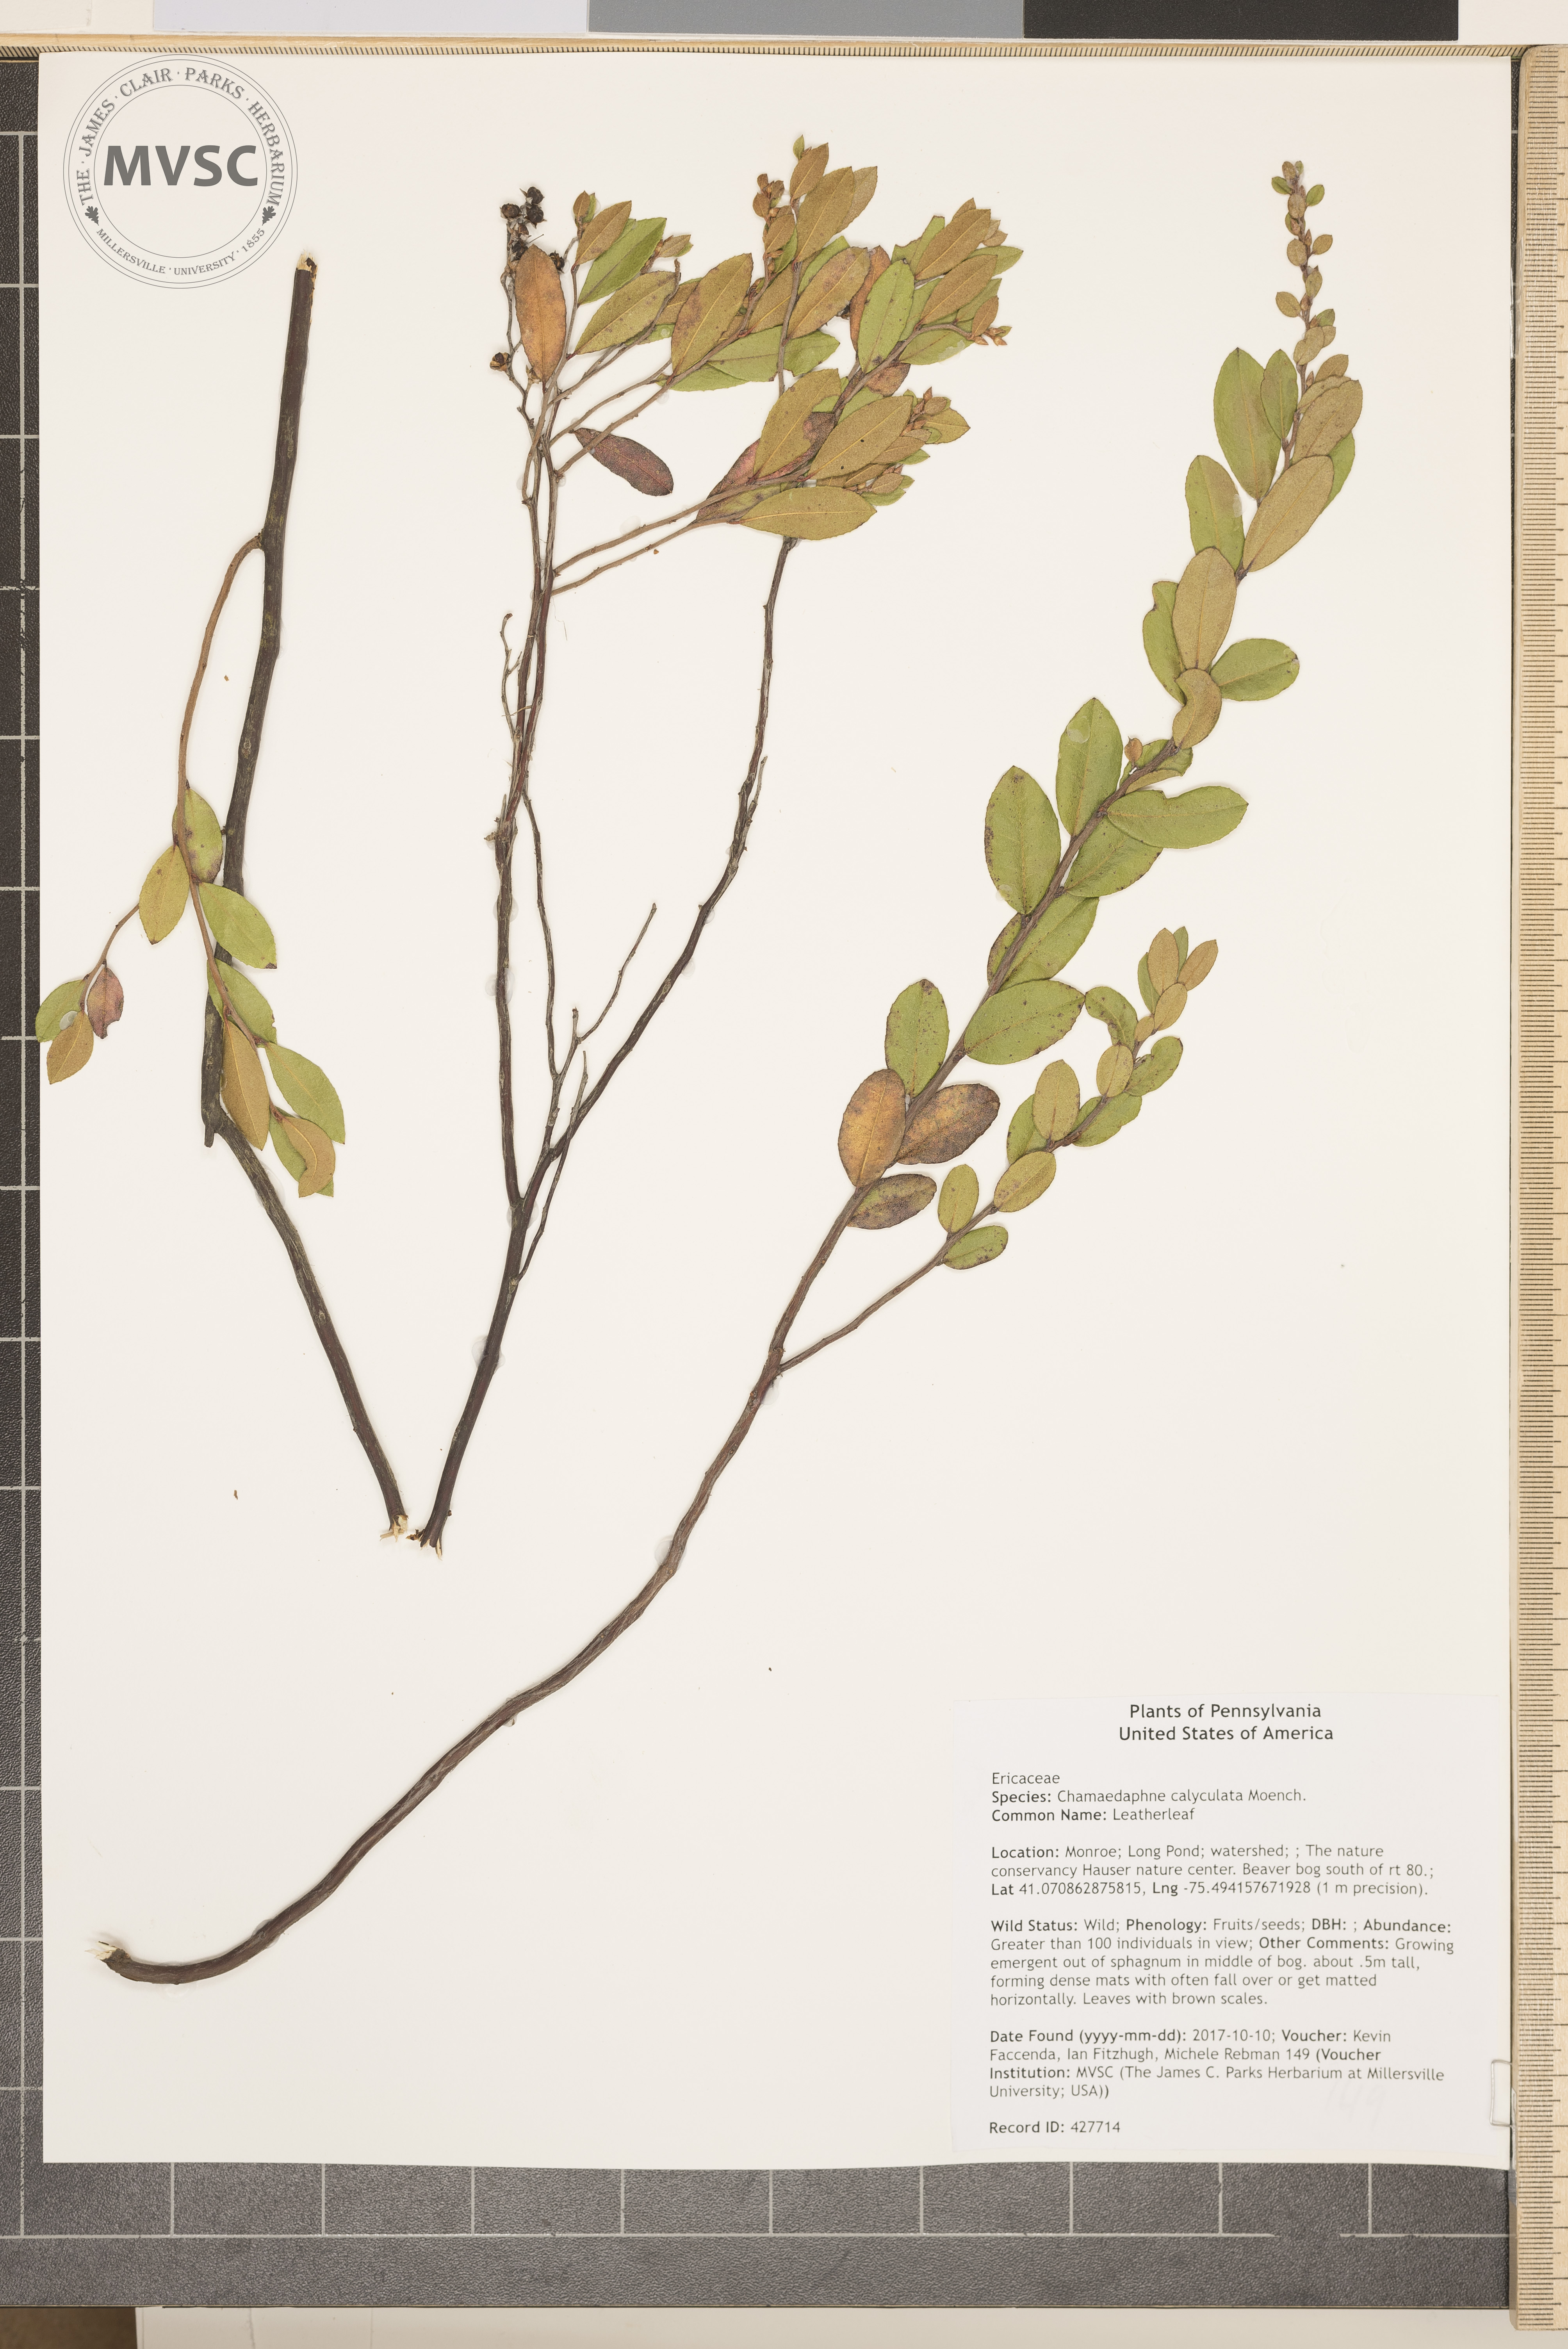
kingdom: Plantae
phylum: Tracheophyta
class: Magnoliopsida
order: Ericales
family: Ericaceae
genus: Chamaedaphne
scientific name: Chamaedaphne calyculata
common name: Leatherleaf
